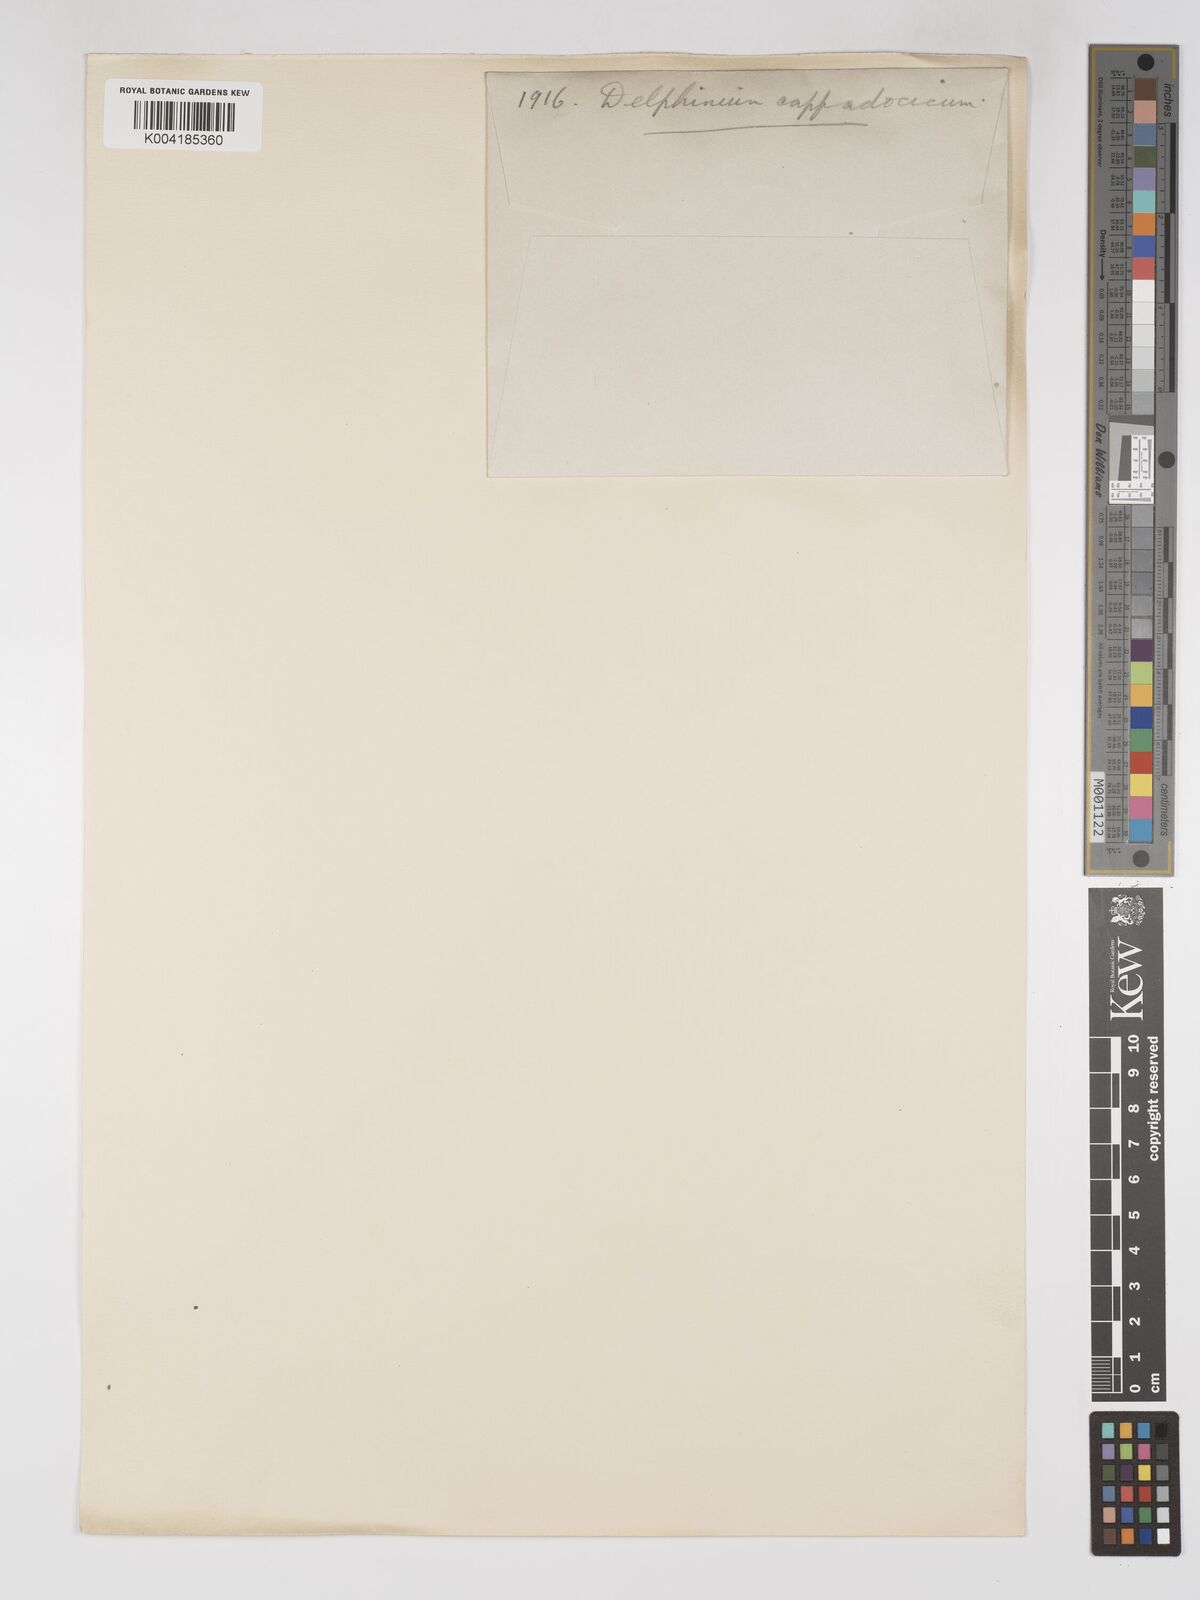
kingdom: Plantae
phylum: Tracheophyta
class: Magnoliopsida
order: Ranunculales
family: Ranunculaceae
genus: Delphinium
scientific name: Delphinium oliverianum
